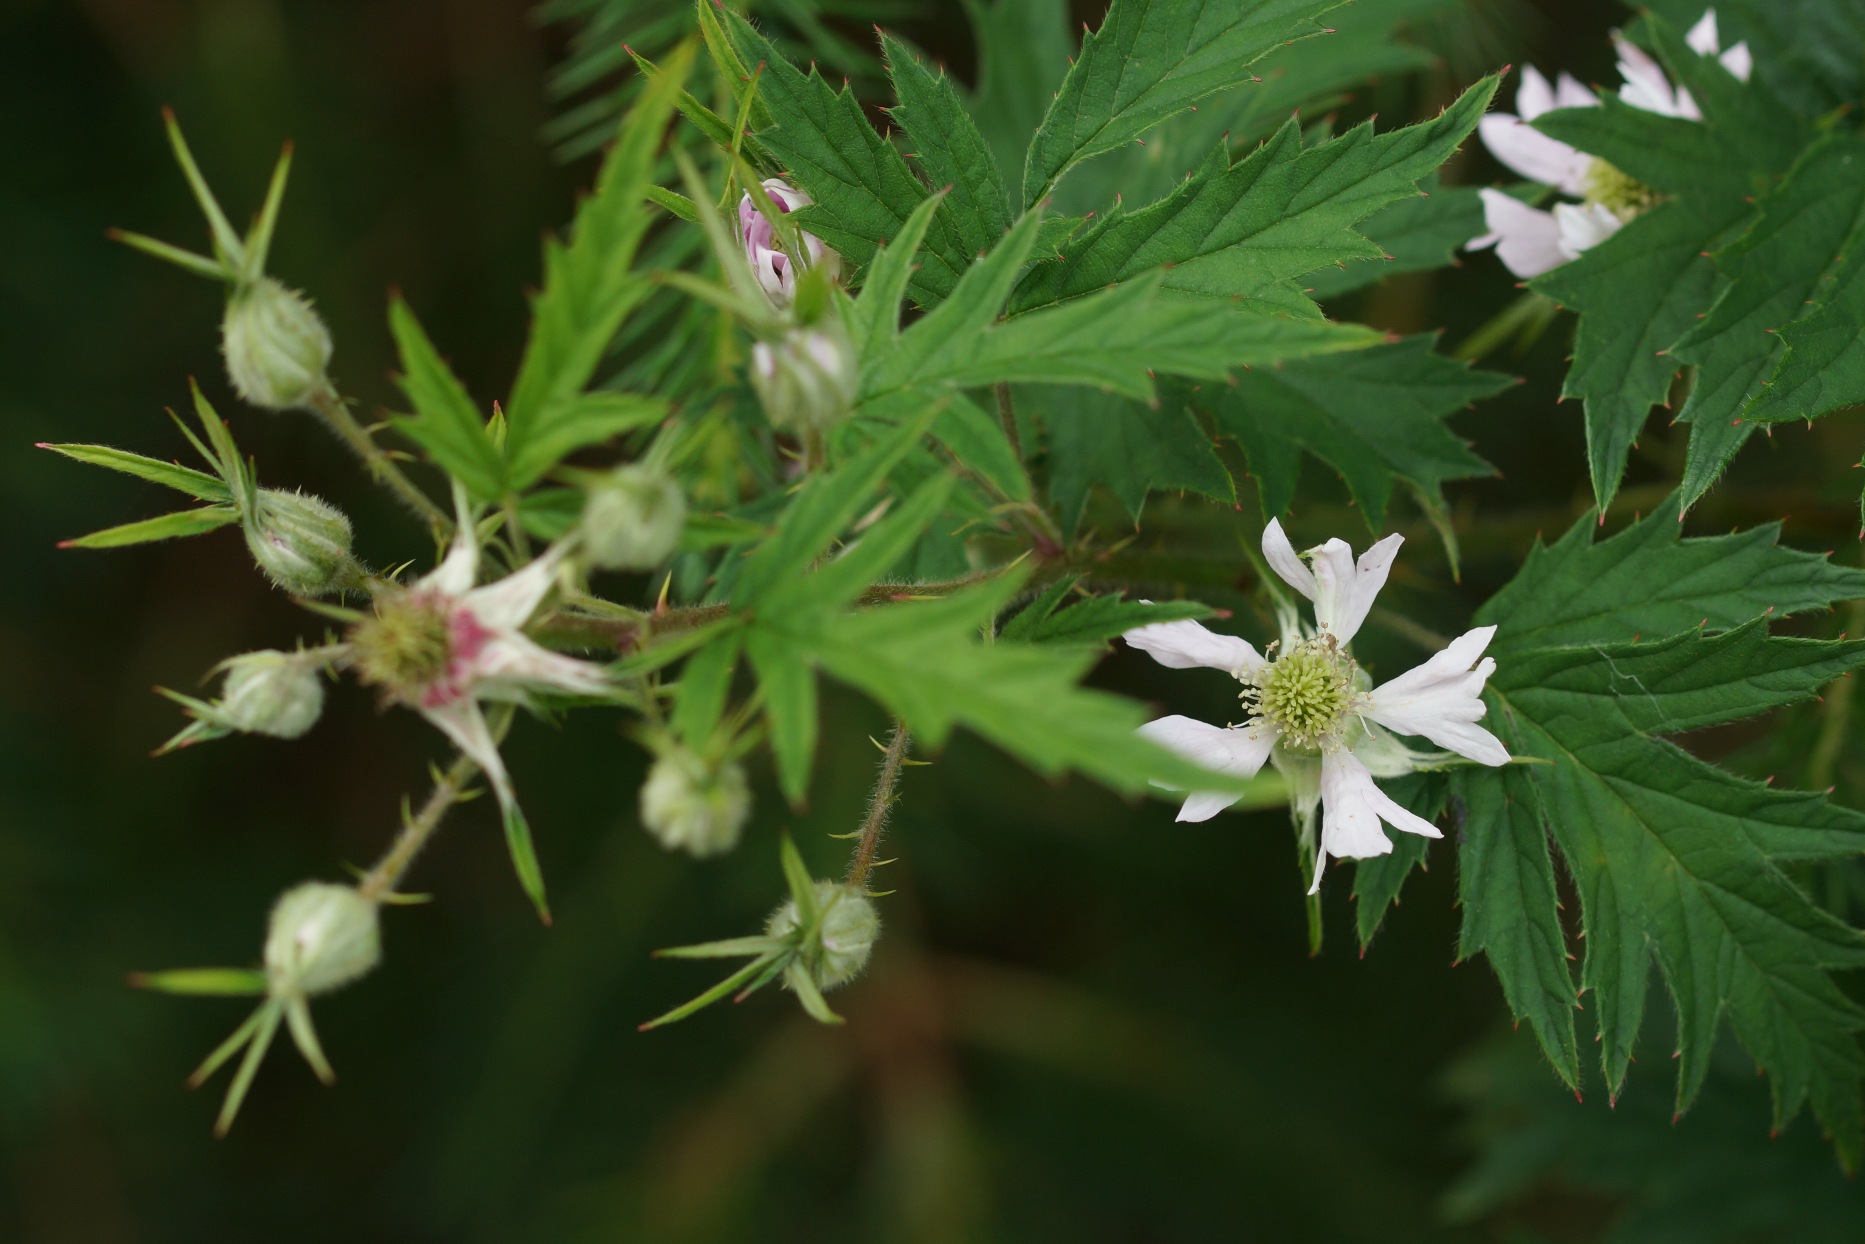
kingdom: Plantae
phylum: Tracheophyta
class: Magnoliopsida
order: Rosales
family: Rosaceae
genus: Rubus
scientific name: Rubus laciniatus
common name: Fliget brombær
